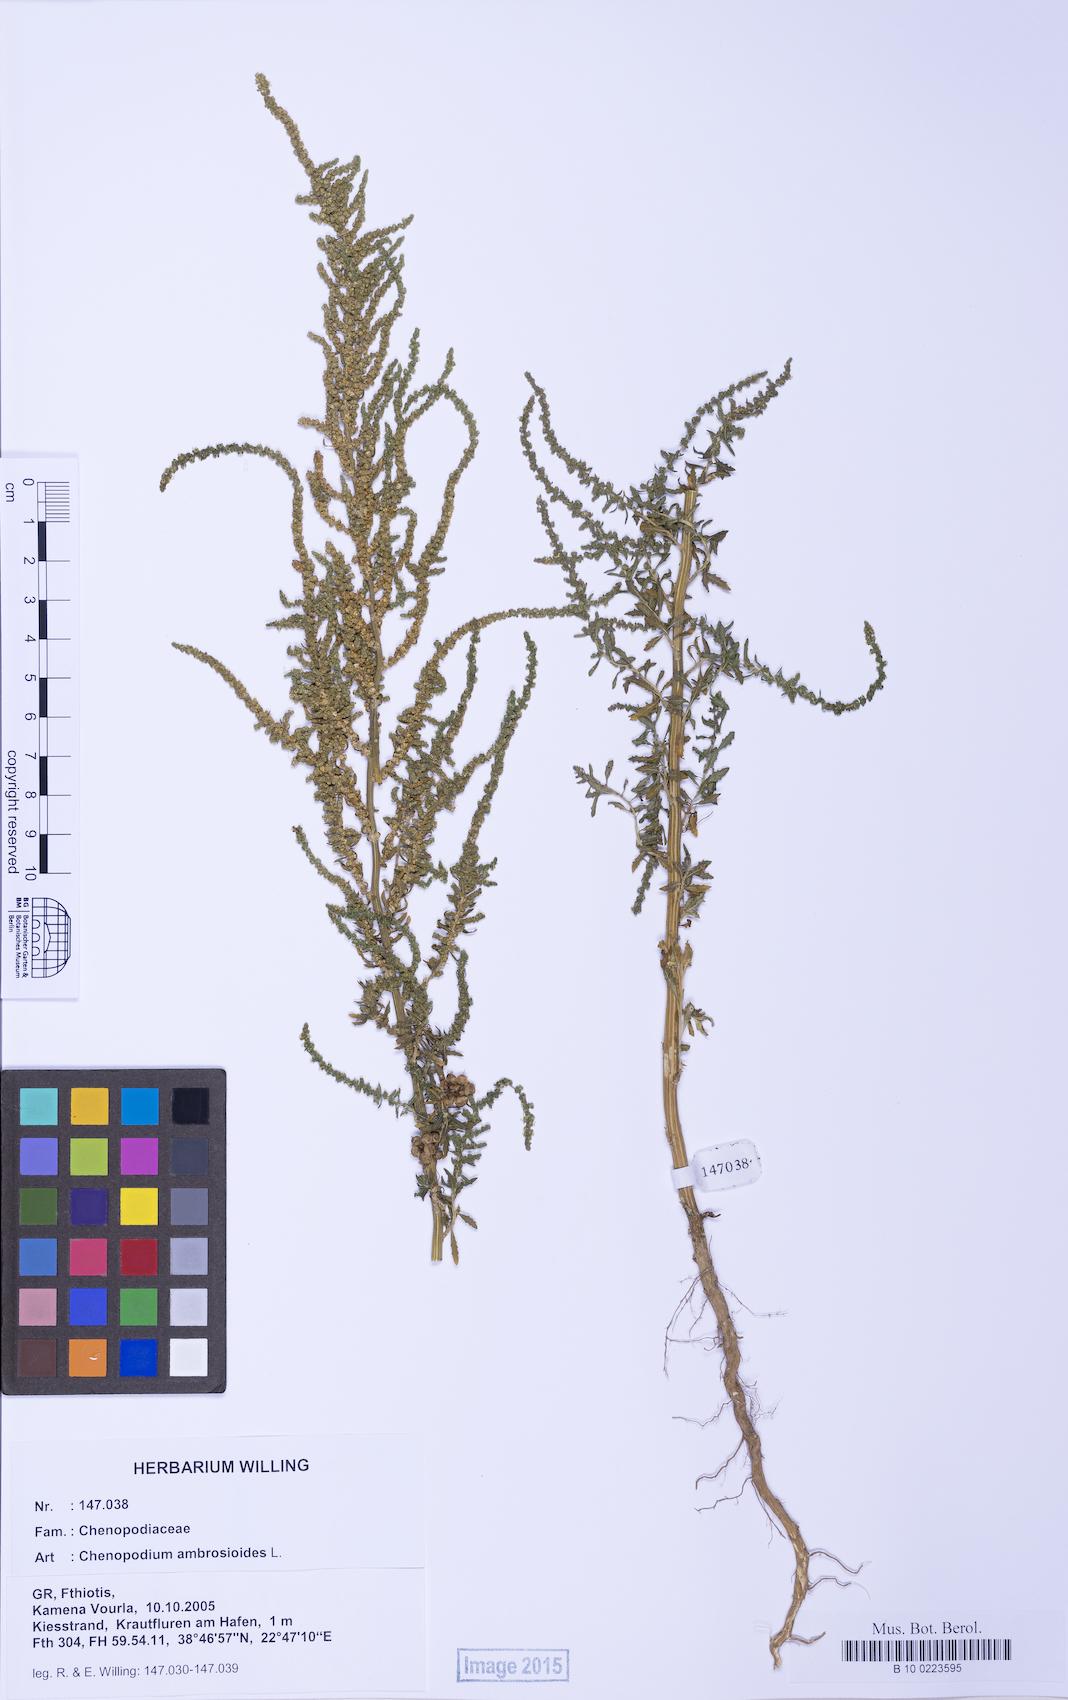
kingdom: Plantae
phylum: Tracheophyta
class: Magnoliopsida
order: Caryophyllales
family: Amaranthaceae
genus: Dysphania
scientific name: Dysphania ambrosioides
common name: Wormseed
